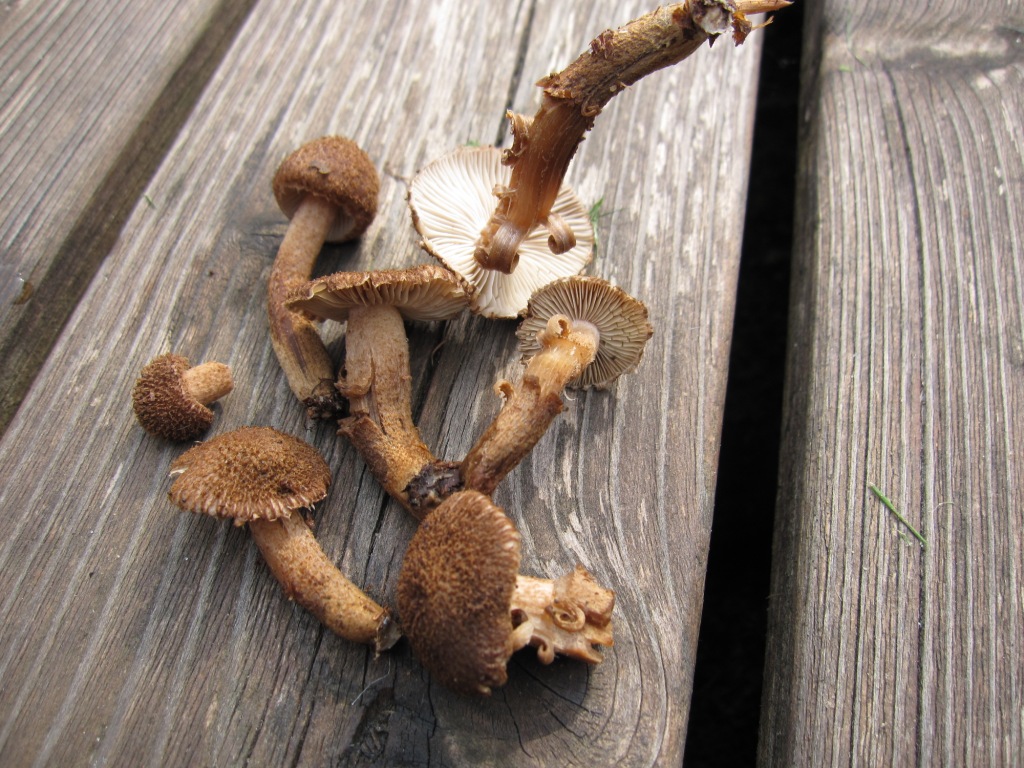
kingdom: Fungi
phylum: Basidiomycota
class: Agaricomycetes
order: Agaricales
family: Inocybaceae
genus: Inocybe
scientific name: Inocybe stellatospora
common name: spidsskællet trævlhat
